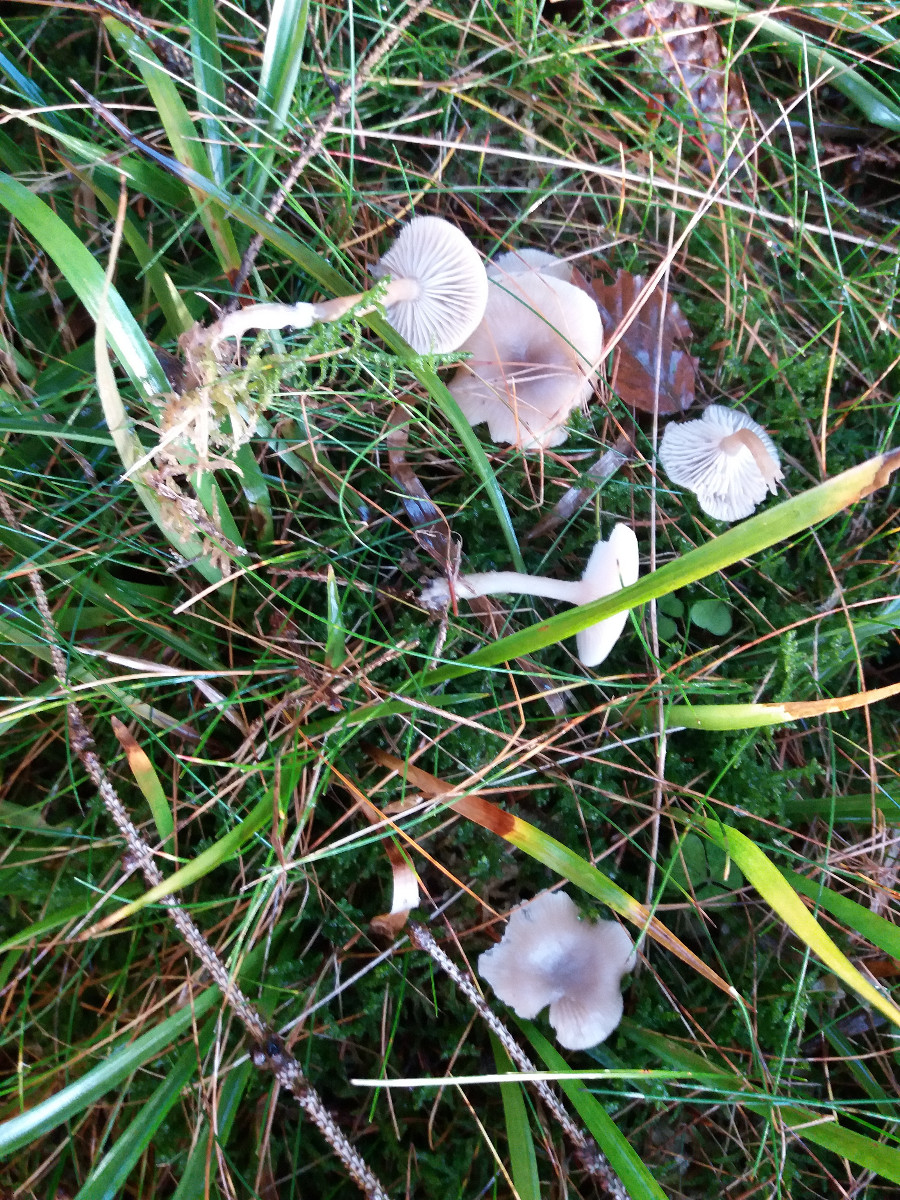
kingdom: Fungi
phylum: Basidiomycota
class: Agaricomycetes
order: Agaricales
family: Tricholomataceae
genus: Clitocybe
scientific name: Clitocybe vibecina
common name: randstribet tragthat
